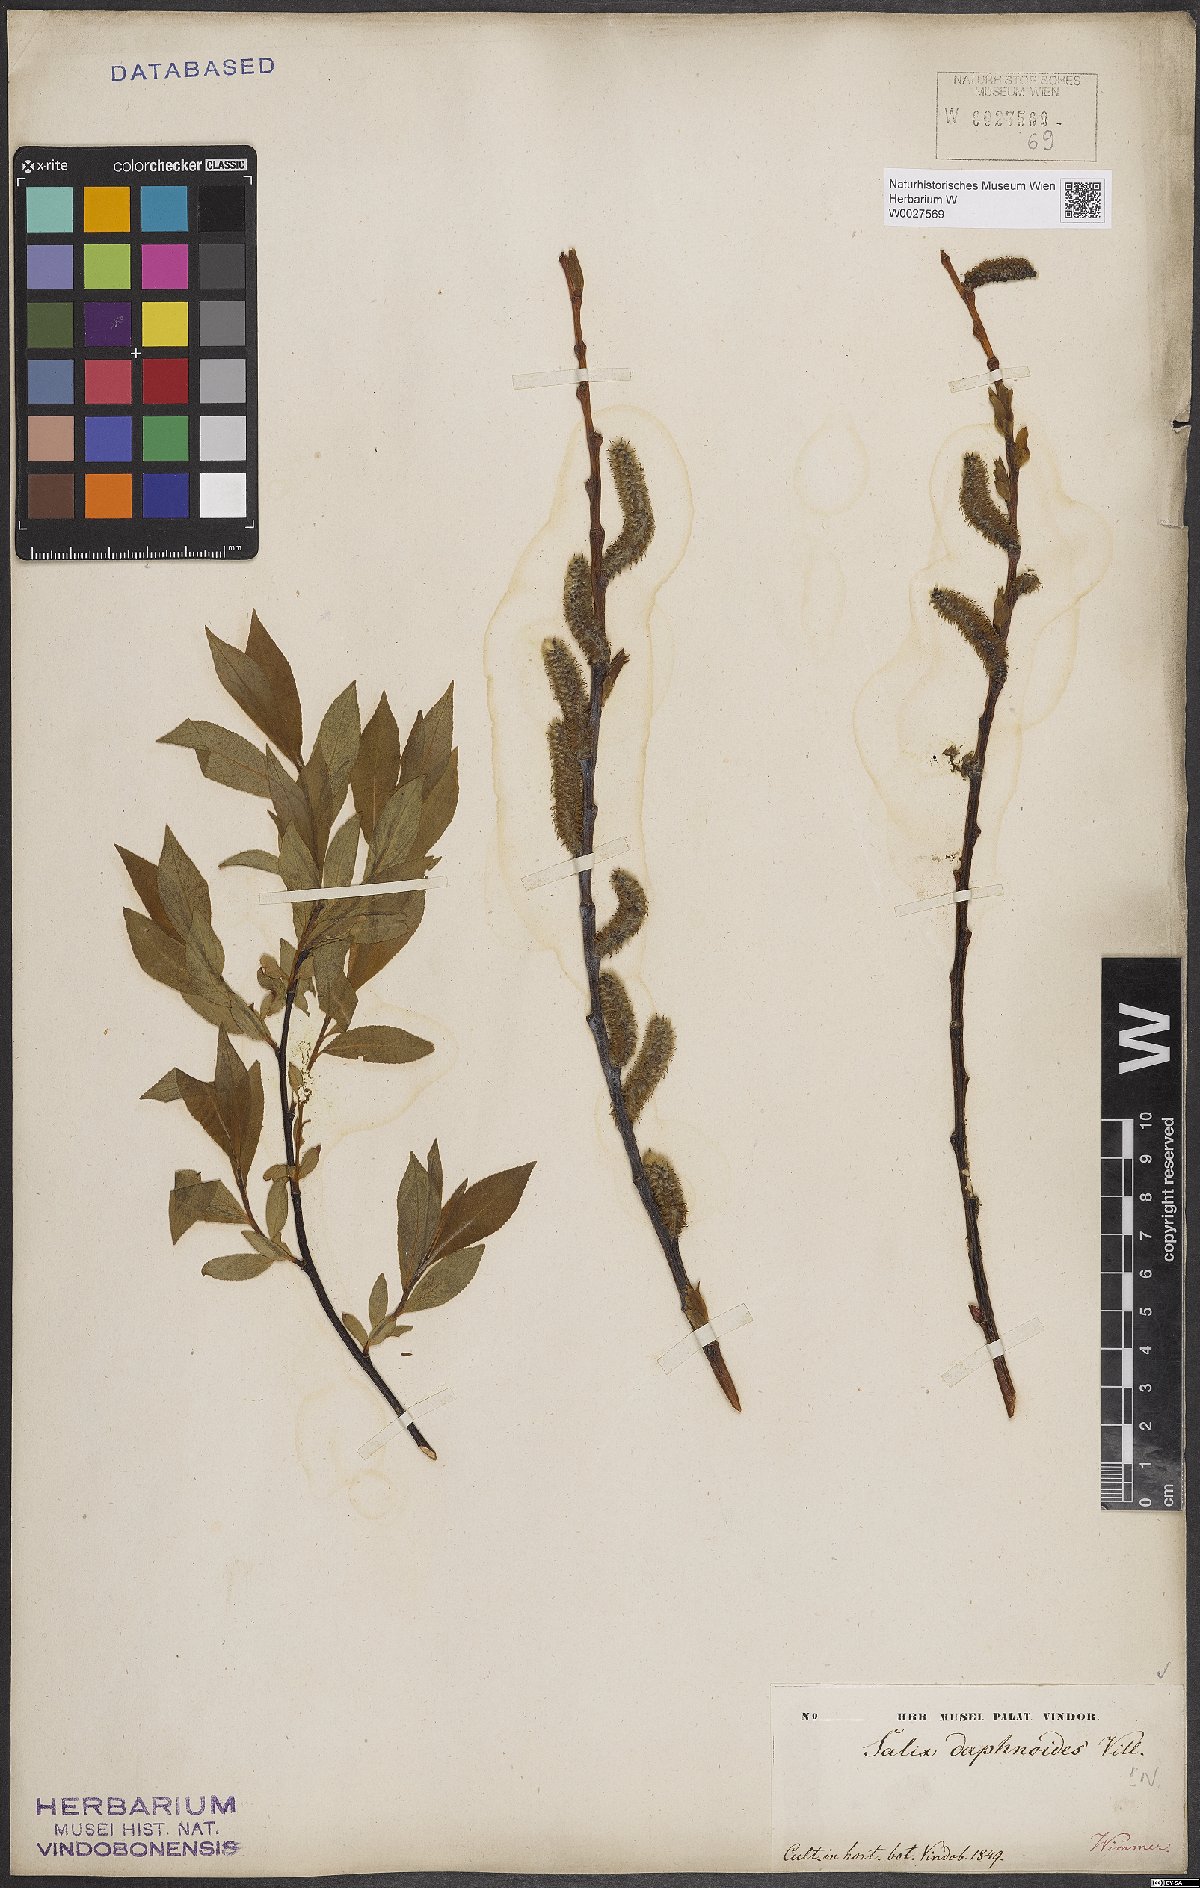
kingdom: Plantae
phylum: Tracheophyta
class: Magnoliopsida
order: Malpighiales
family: Salicaceae
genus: Salix
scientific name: Salix daphnoides
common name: European violet-willow
